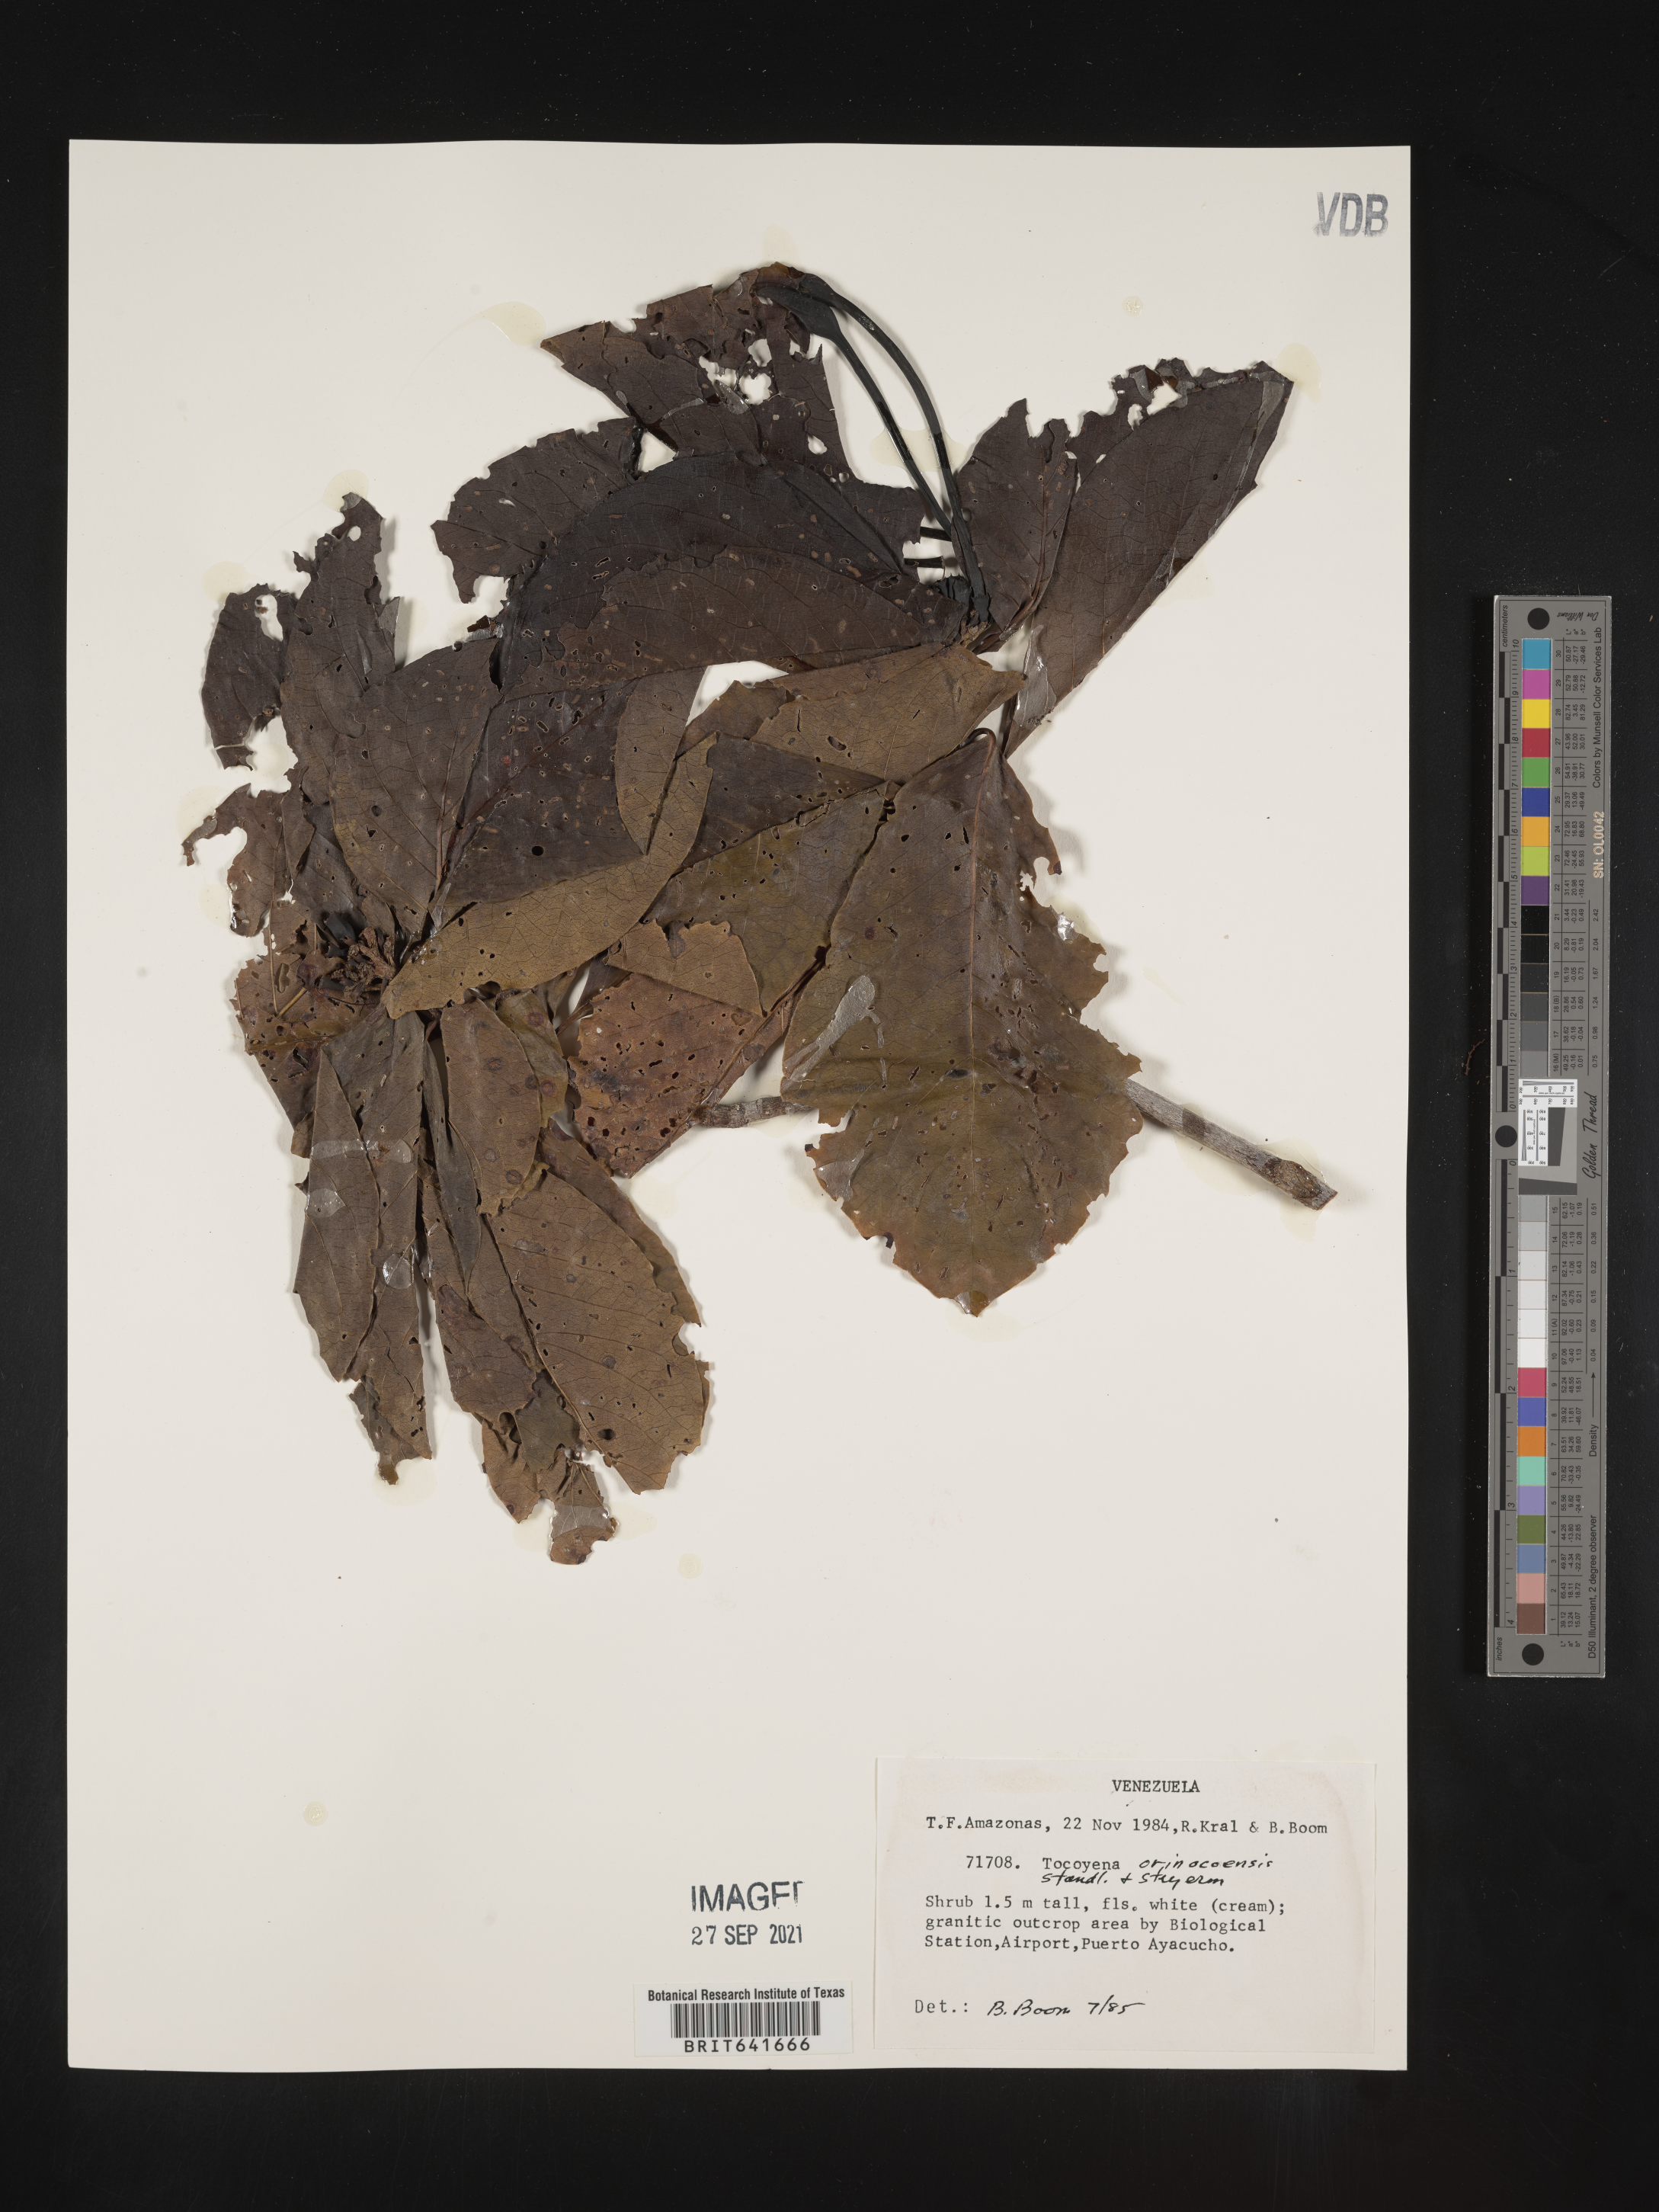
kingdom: Plantae
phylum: Tracheophyta
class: Magnoliopsida
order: Gentianales
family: Rubiaceae
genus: Tocoyena
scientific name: Tocoyena
